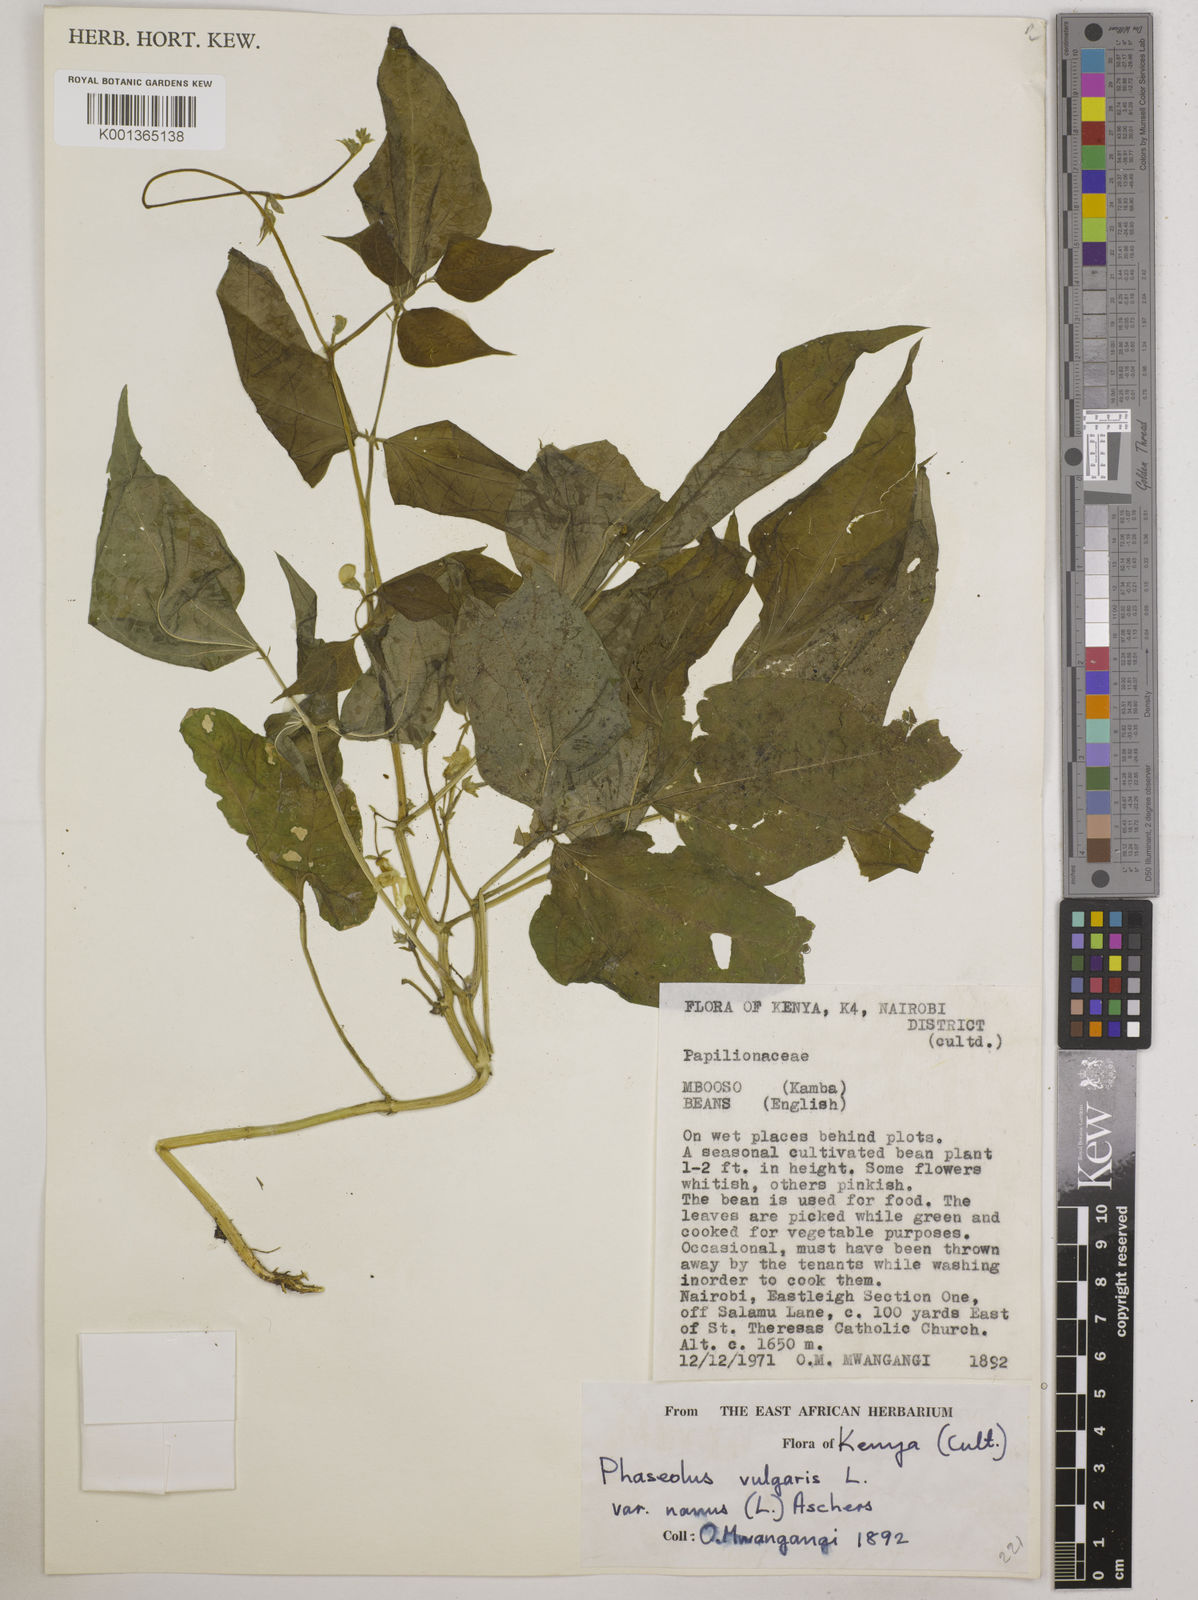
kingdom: Plantae
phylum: Tracheophyta
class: Magnoliopsida
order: Fabales
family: Fabaceae
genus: Phaseolus
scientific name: Phaseolus
